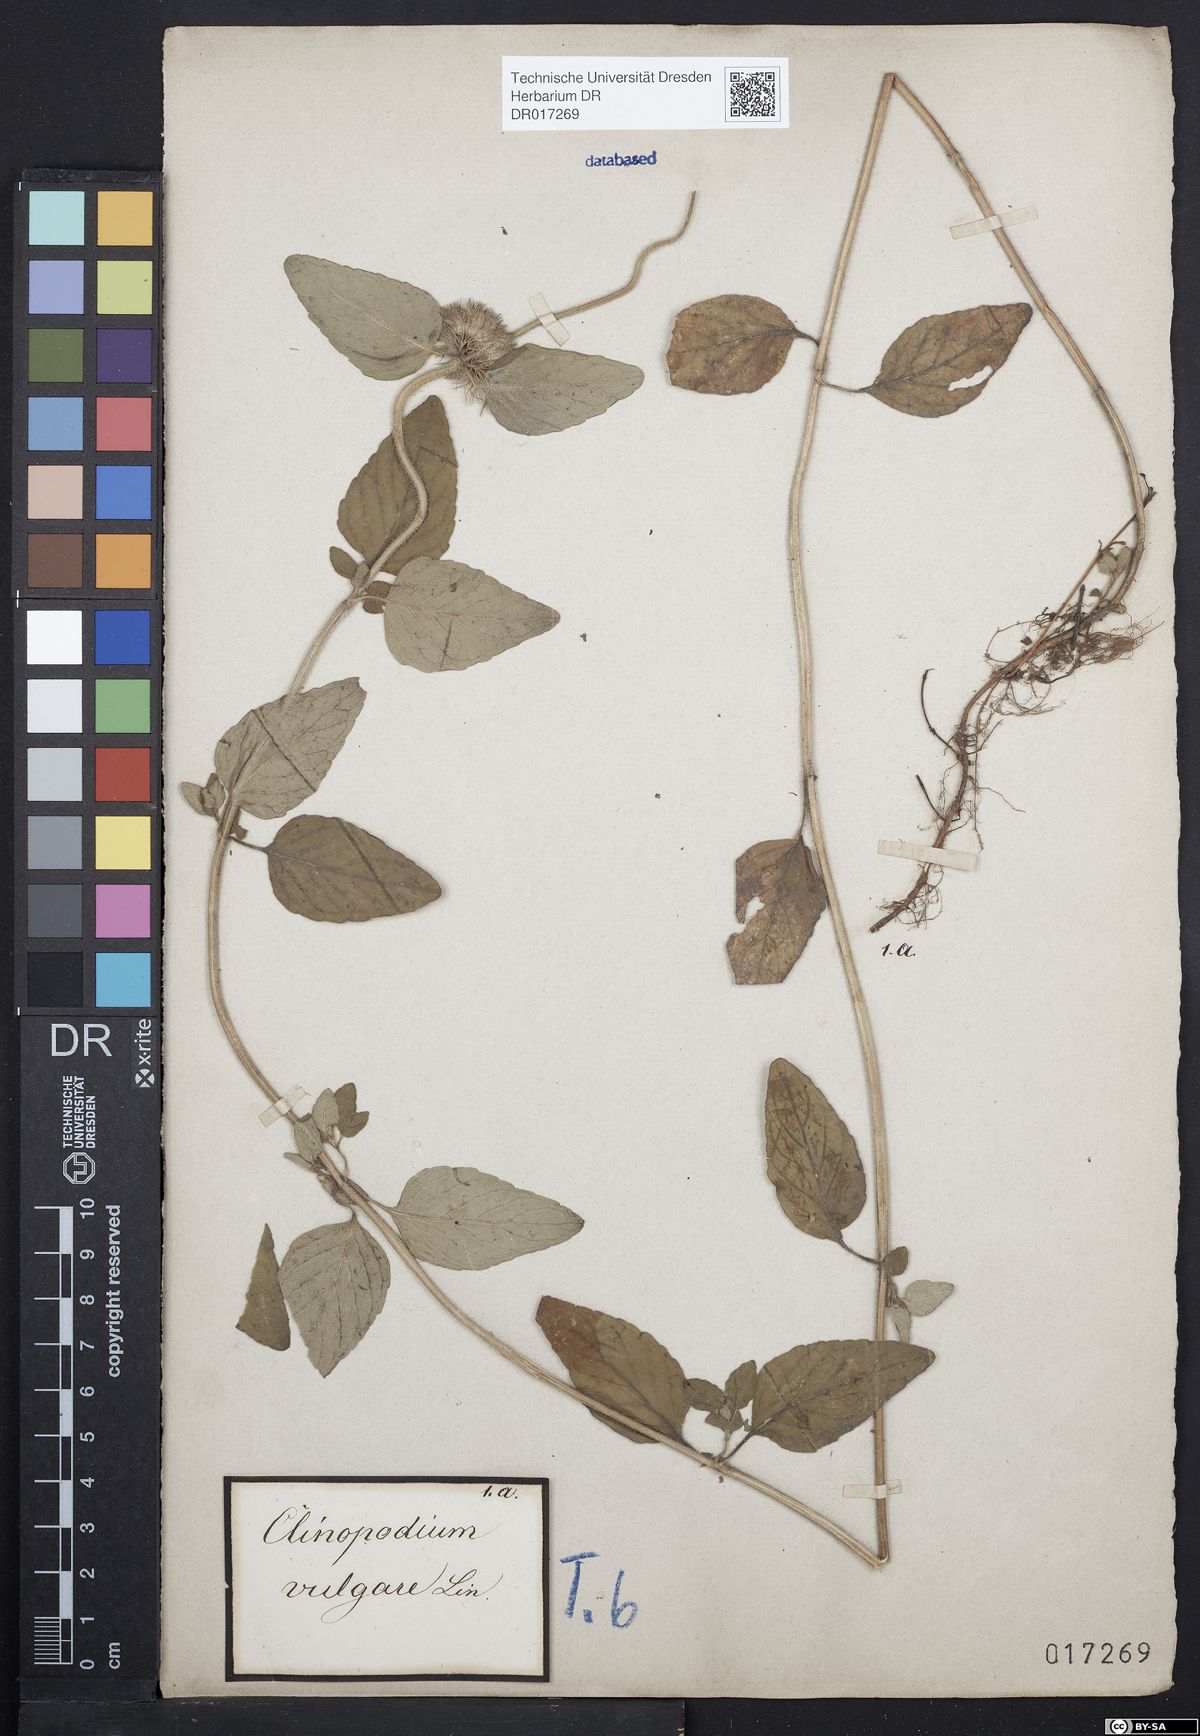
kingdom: Plantae
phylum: Tracheophyta
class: Magnoliopsida
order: Lamiales
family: Lamiaceae
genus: Clinopodium
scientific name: Clinopodium vulgare
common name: Wild basil
